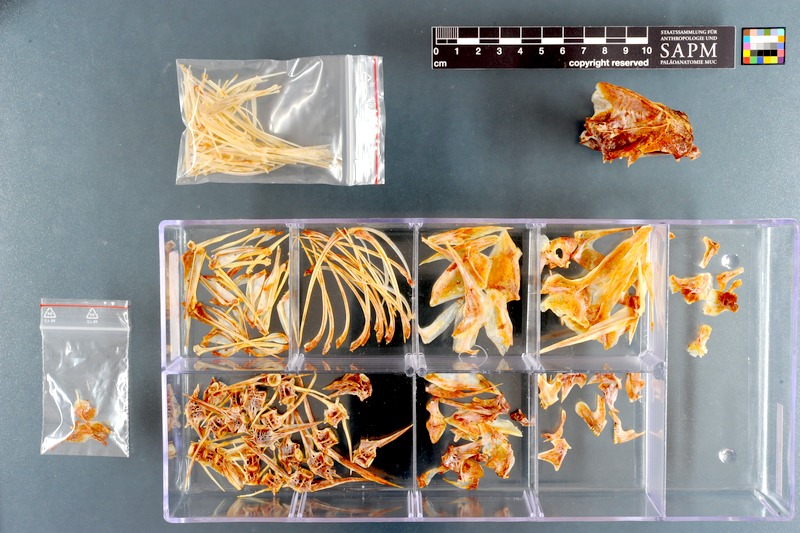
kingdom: Animalia
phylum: Chordata
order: Perciformes
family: Sparidae
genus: Pachymetopon
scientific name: Pachymetopon aeneum
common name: Blue hottentot
